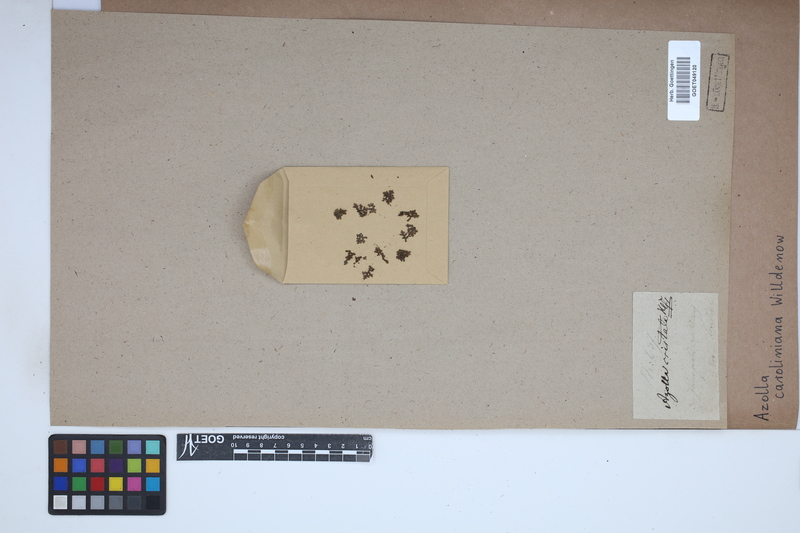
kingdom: Plantae
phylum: Tracheophyta
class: Polypodiopsida
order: Salviniales
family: Salviniaceae
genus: Azolla
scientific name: Azolla caroliniana
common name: Carolina mosquitofern
